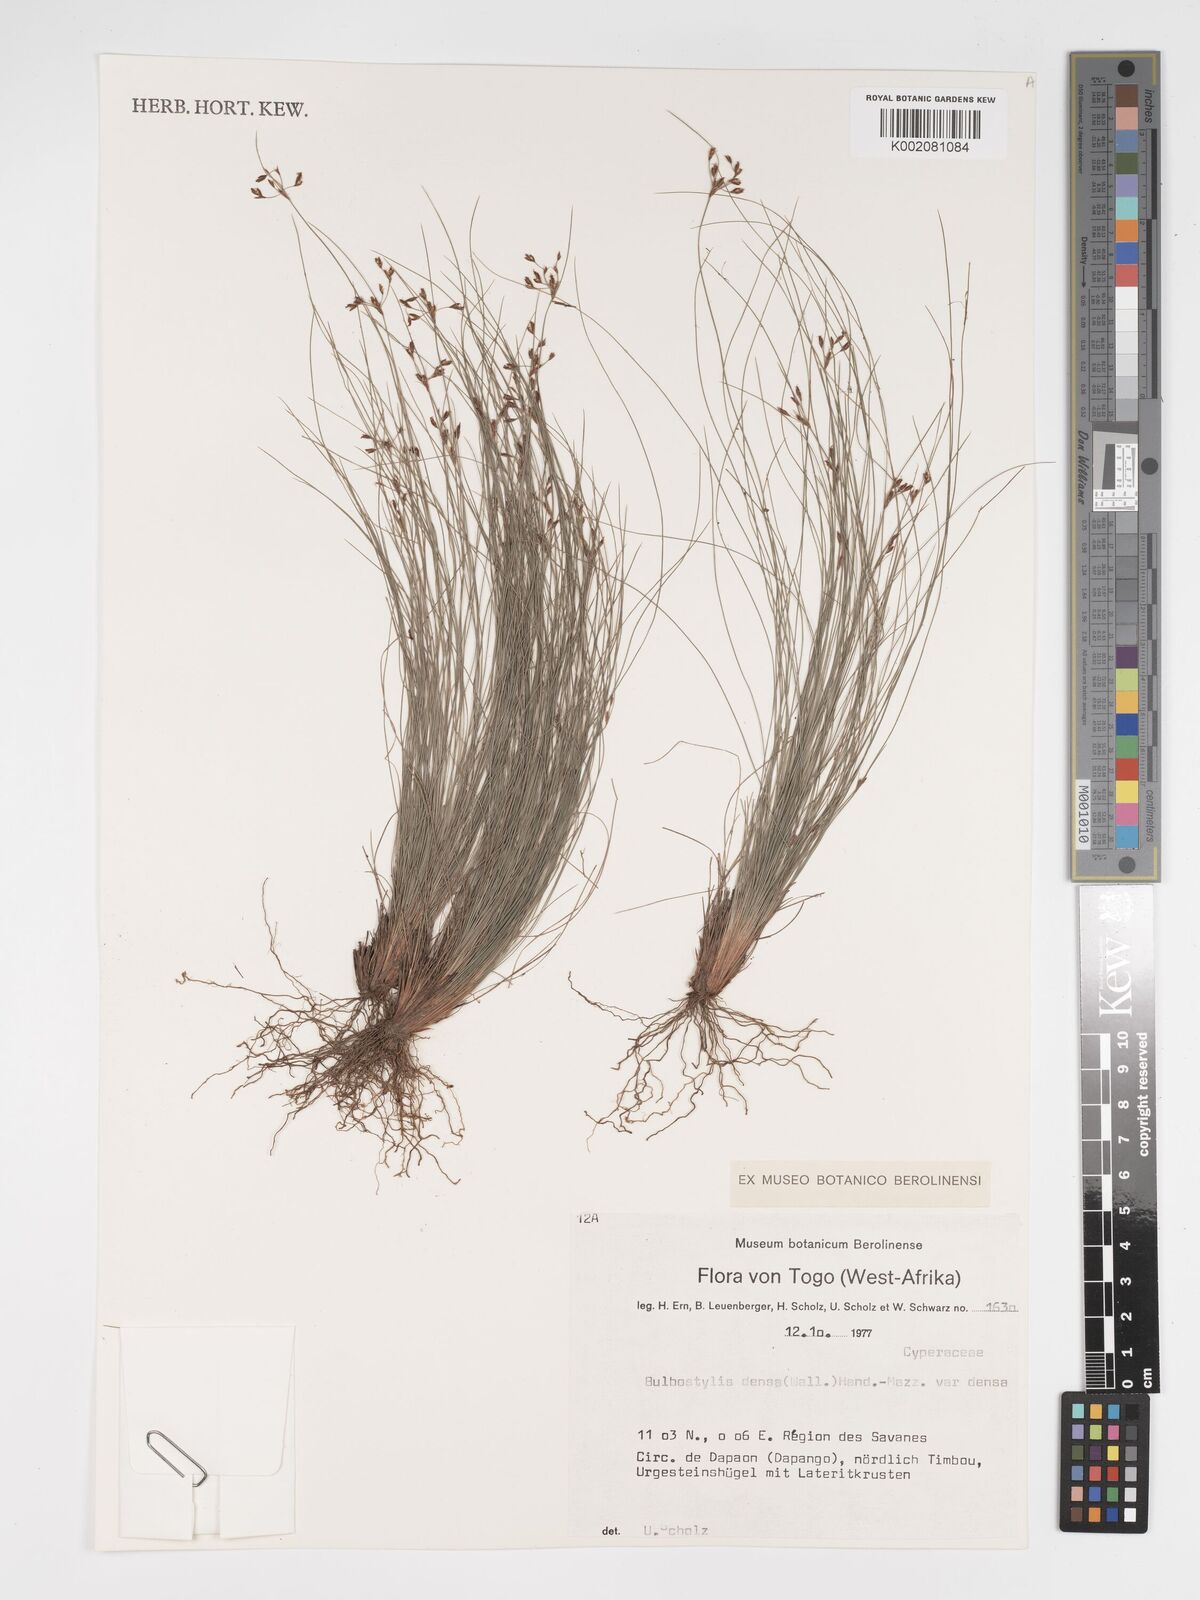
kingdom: Plantae
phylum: Tracheophyta
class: Liliopsida
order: Poales
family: Cyperaceae
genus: Bulbostylis
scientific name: Bulbostylis densa
